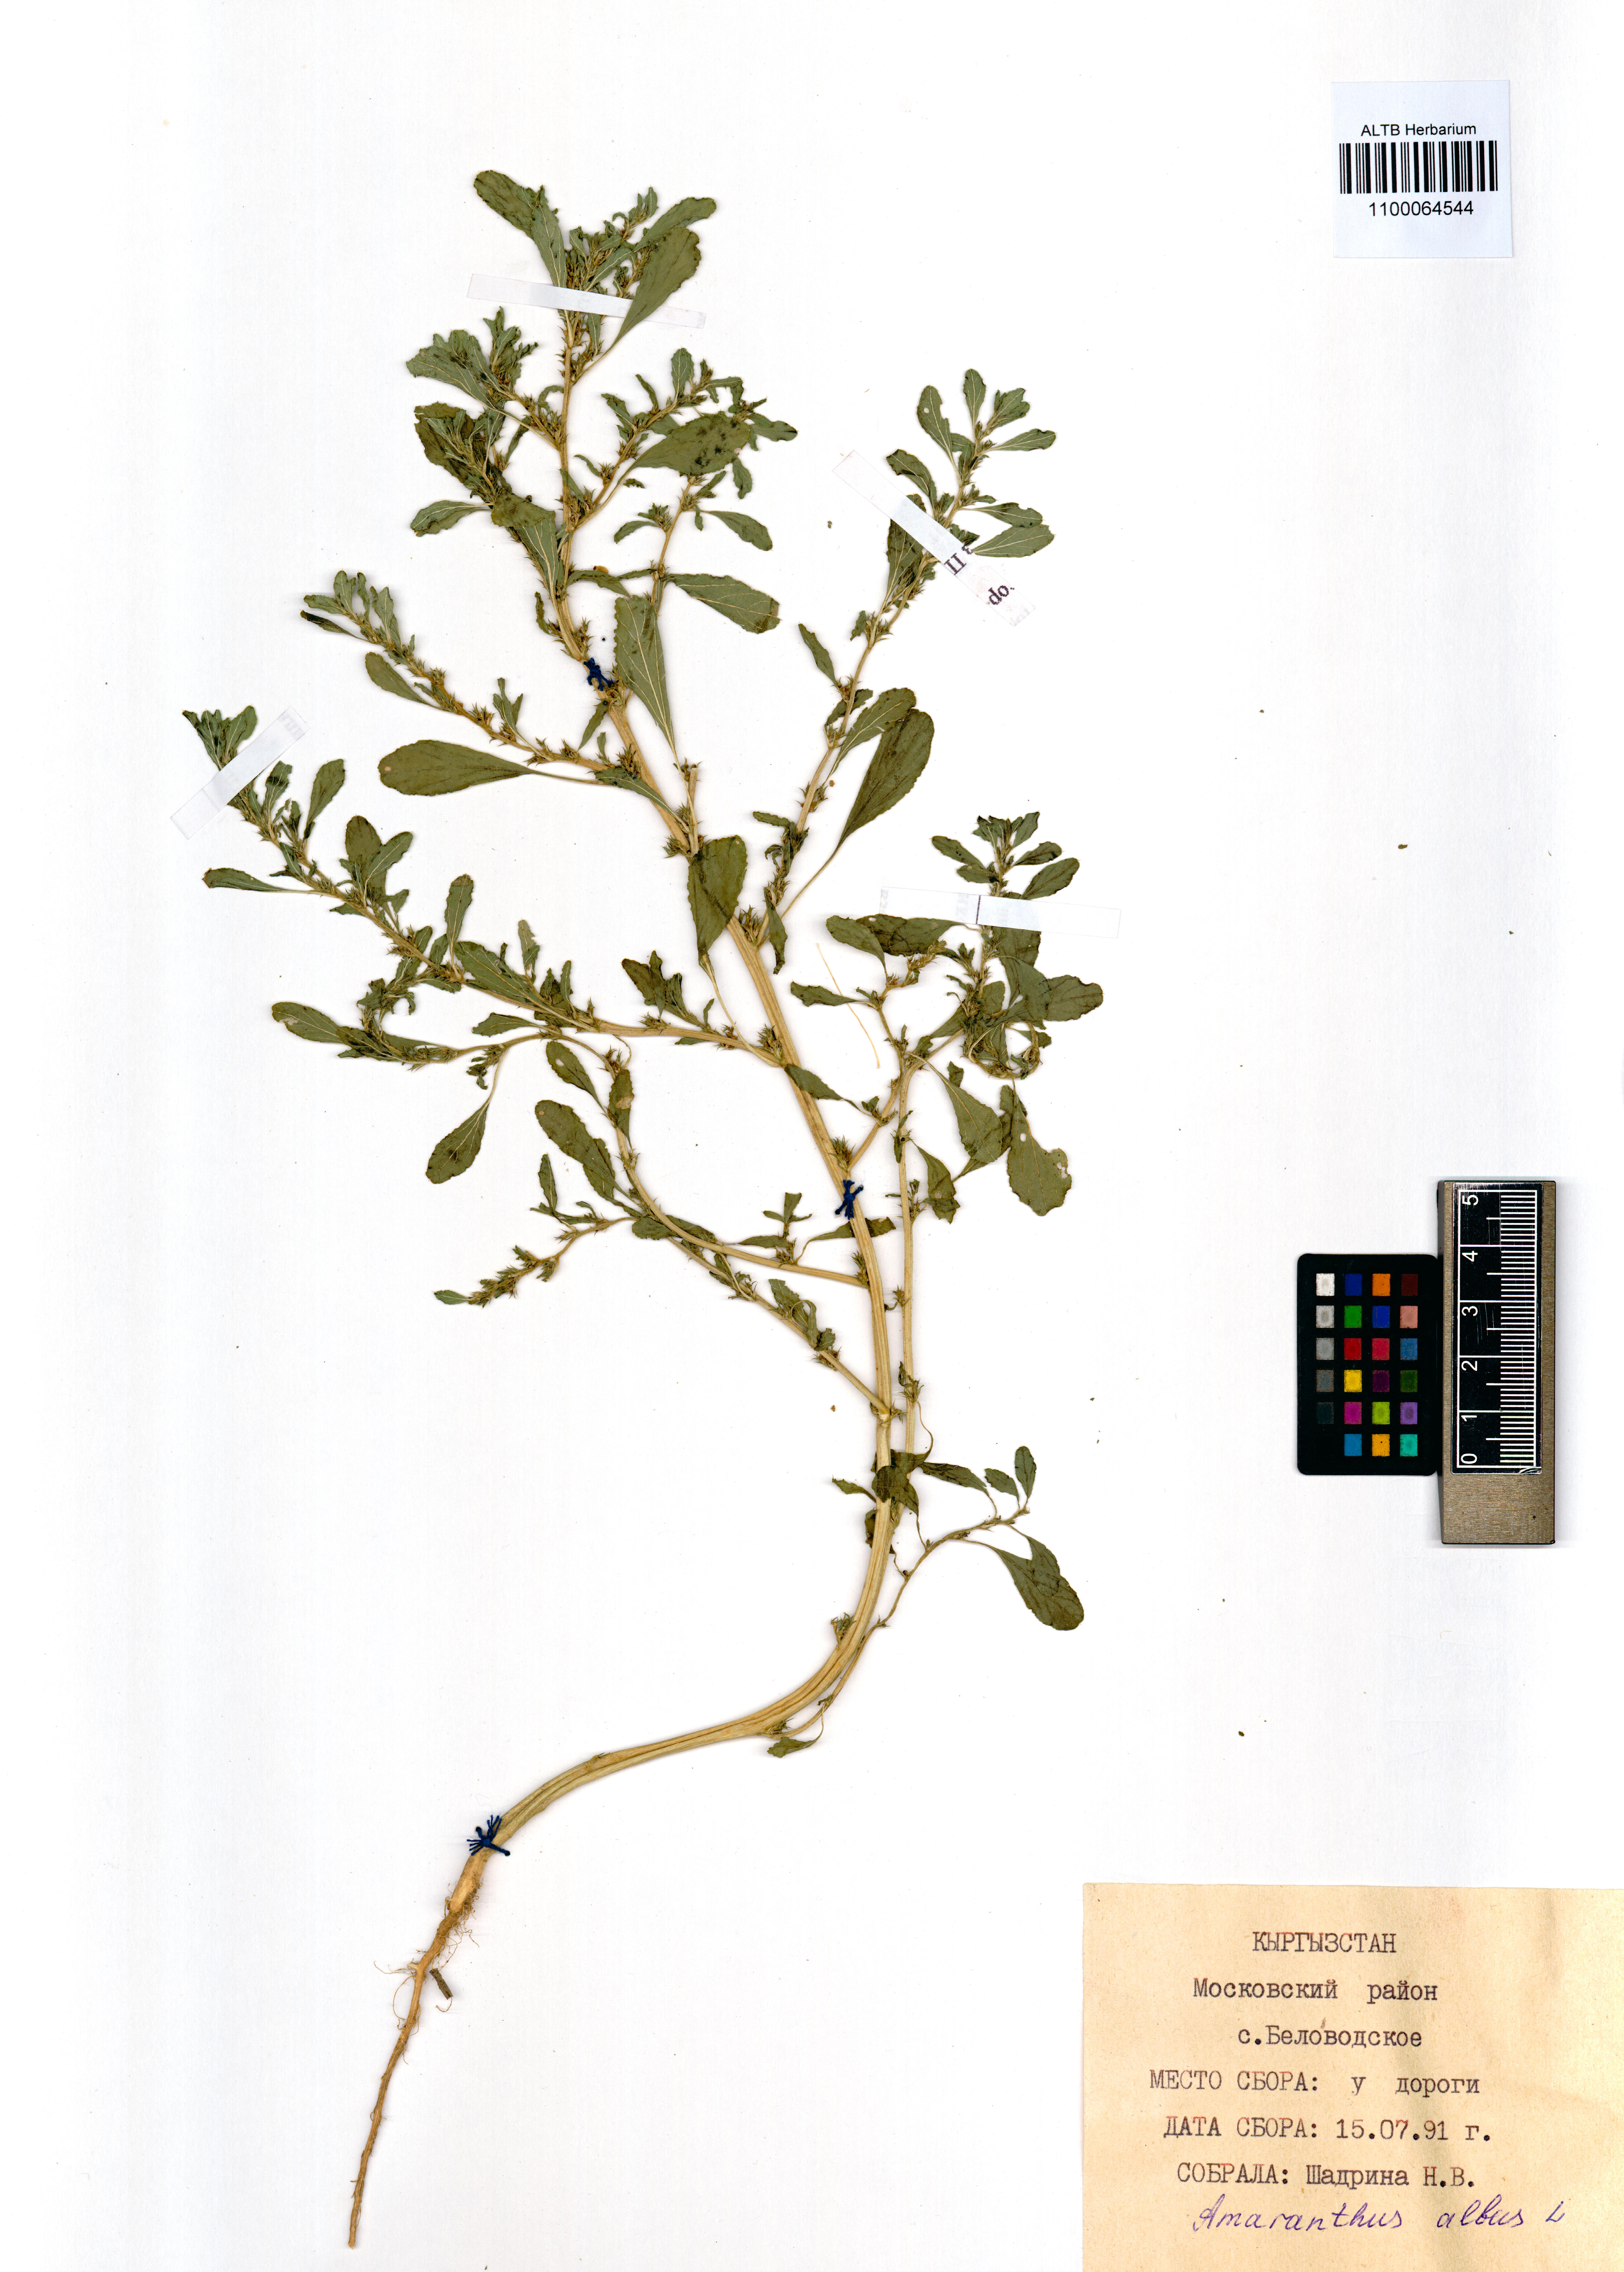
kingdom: Plantae
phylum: Tracheophyta
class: Magnoliopsida
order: Caryophyllales
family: Amaranthaceae
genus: Amaranthus
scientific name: Amaranthus albus
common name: White pigweed
